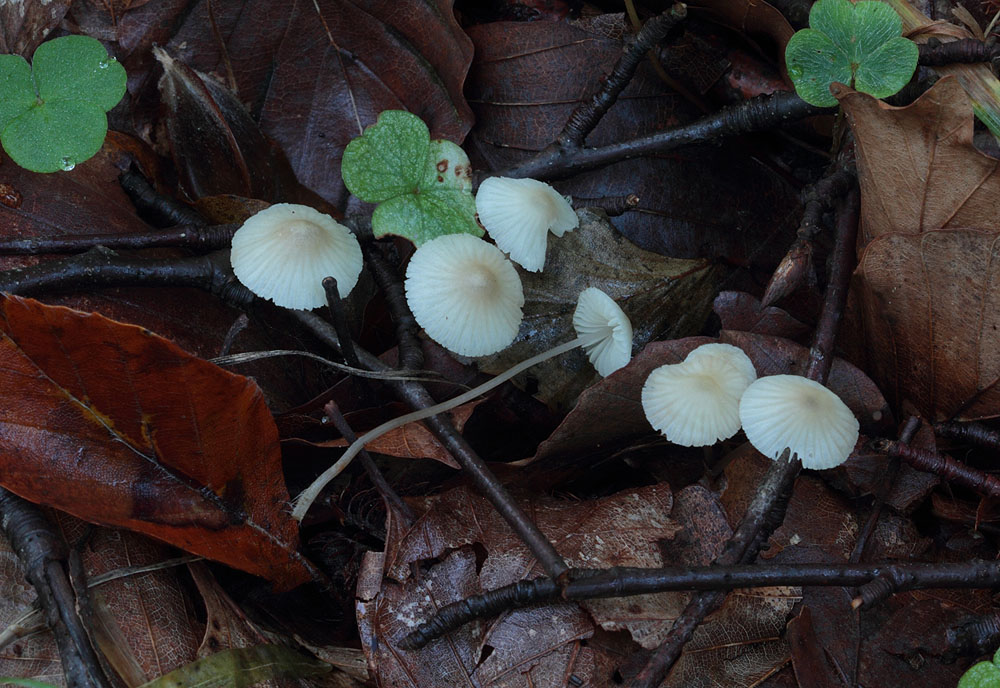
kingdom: Fungi
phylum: Basidiomycota
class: Agaricomycetes
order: Agaricales
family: Mycenaceae
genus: Mycena
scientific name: Mycena flavescens
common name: grågul huesvamp
